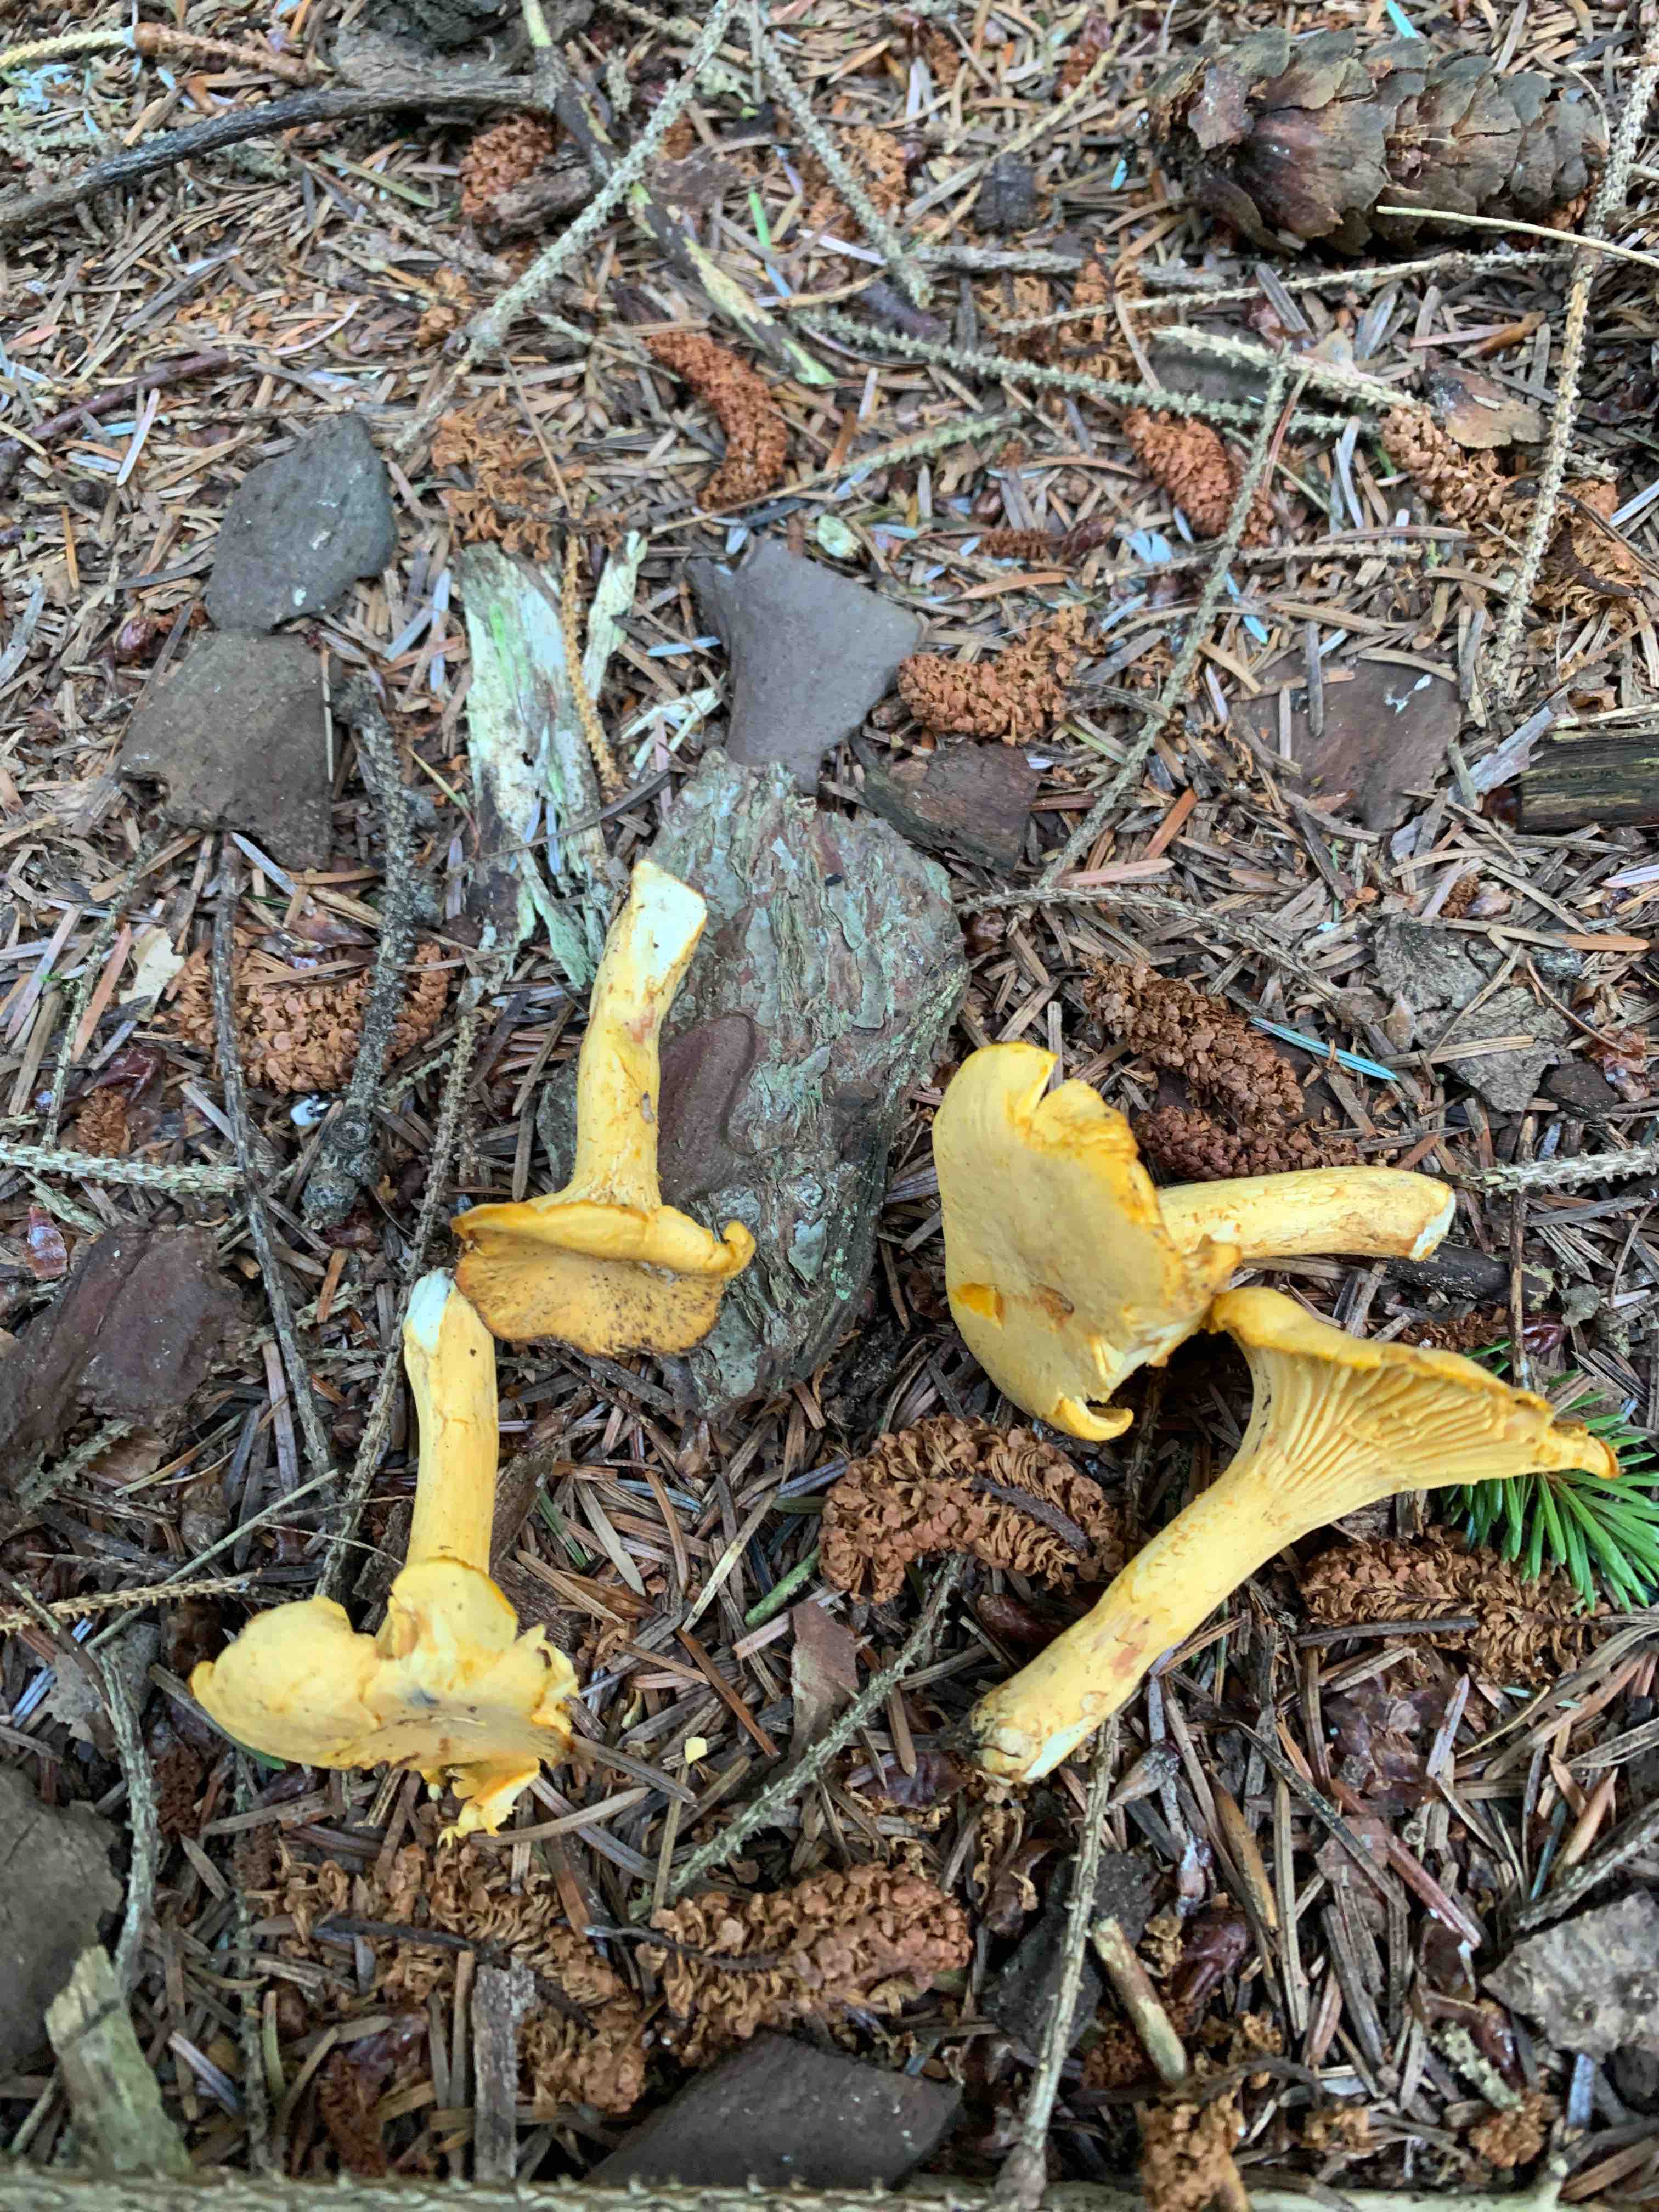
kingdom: Fungi
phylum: Basidiomycota
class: Agaricomycetes
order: Cantharellales
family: Hydnaceae
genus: Cantharellus
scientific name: Cantharellus cibarius
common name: almindelig kantarel
